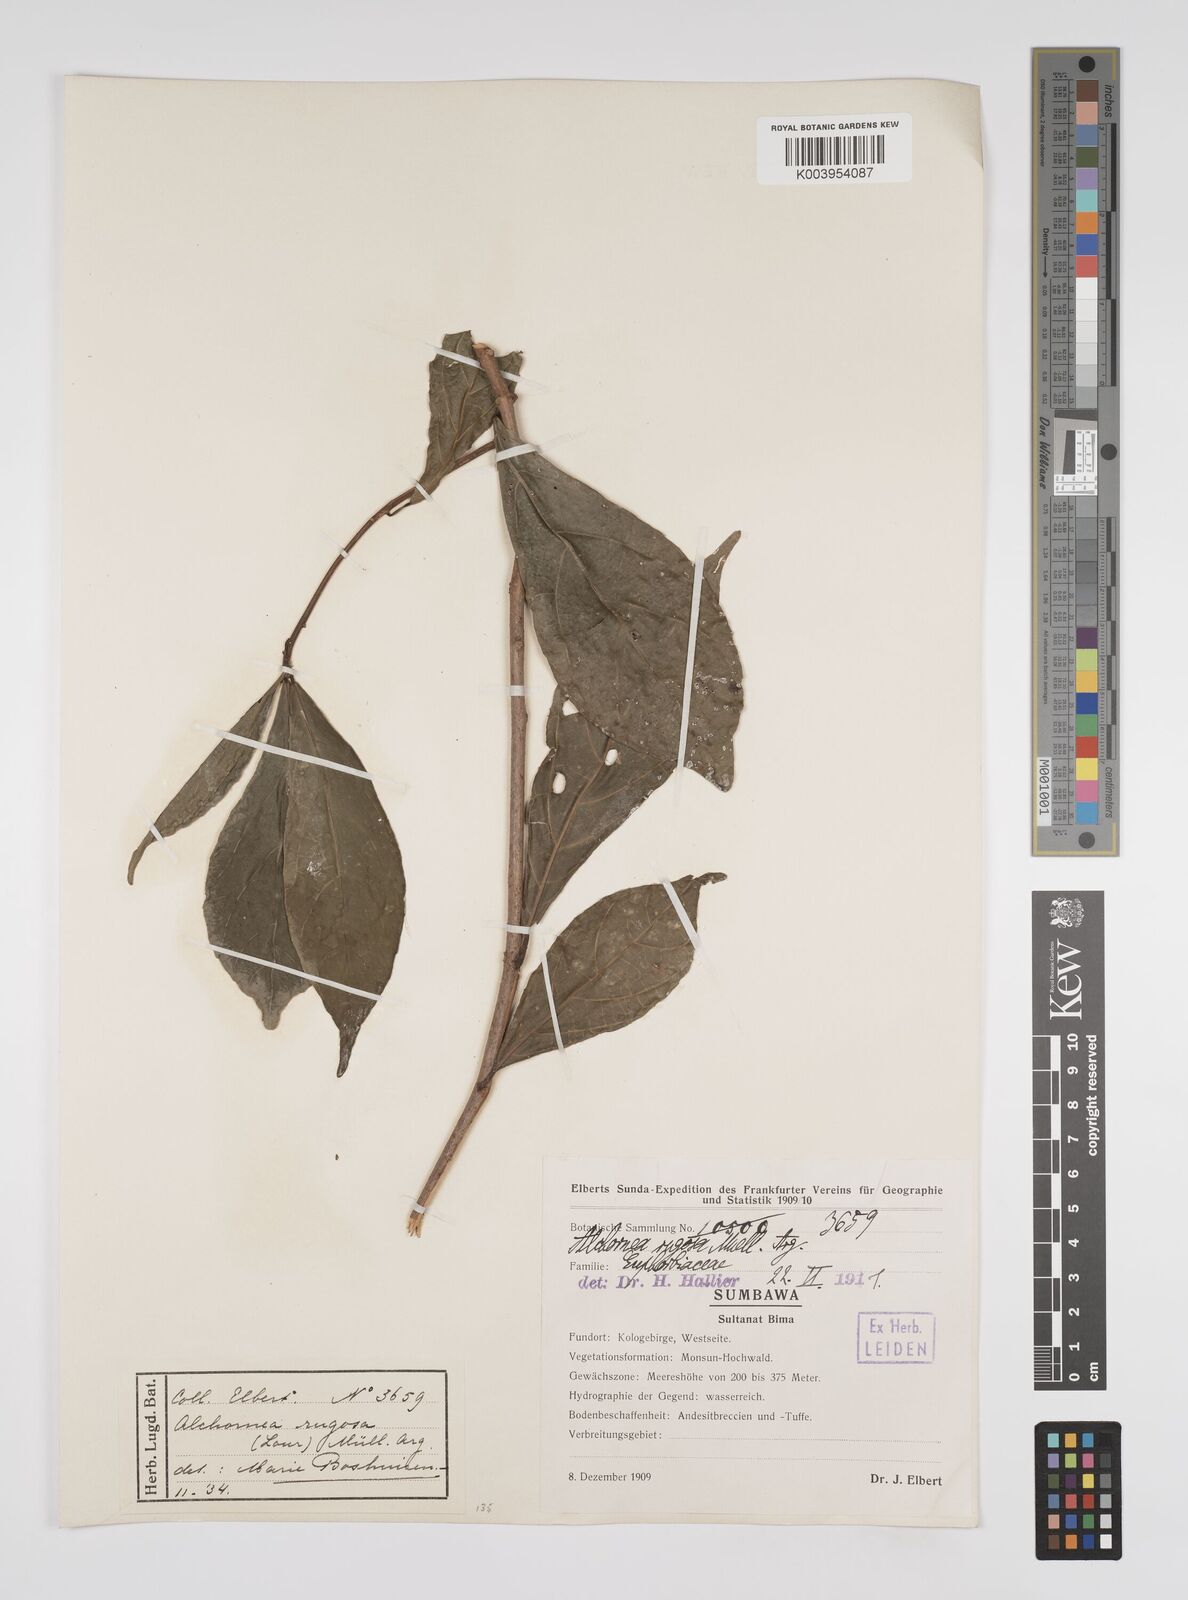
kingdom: Plantae
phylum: Tracheophyta
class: Magnoliopsida
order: Malpighiales
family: Euphorbiaceae
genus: Alchornea
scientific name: Alchornea rugosa
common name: Alchorntree
